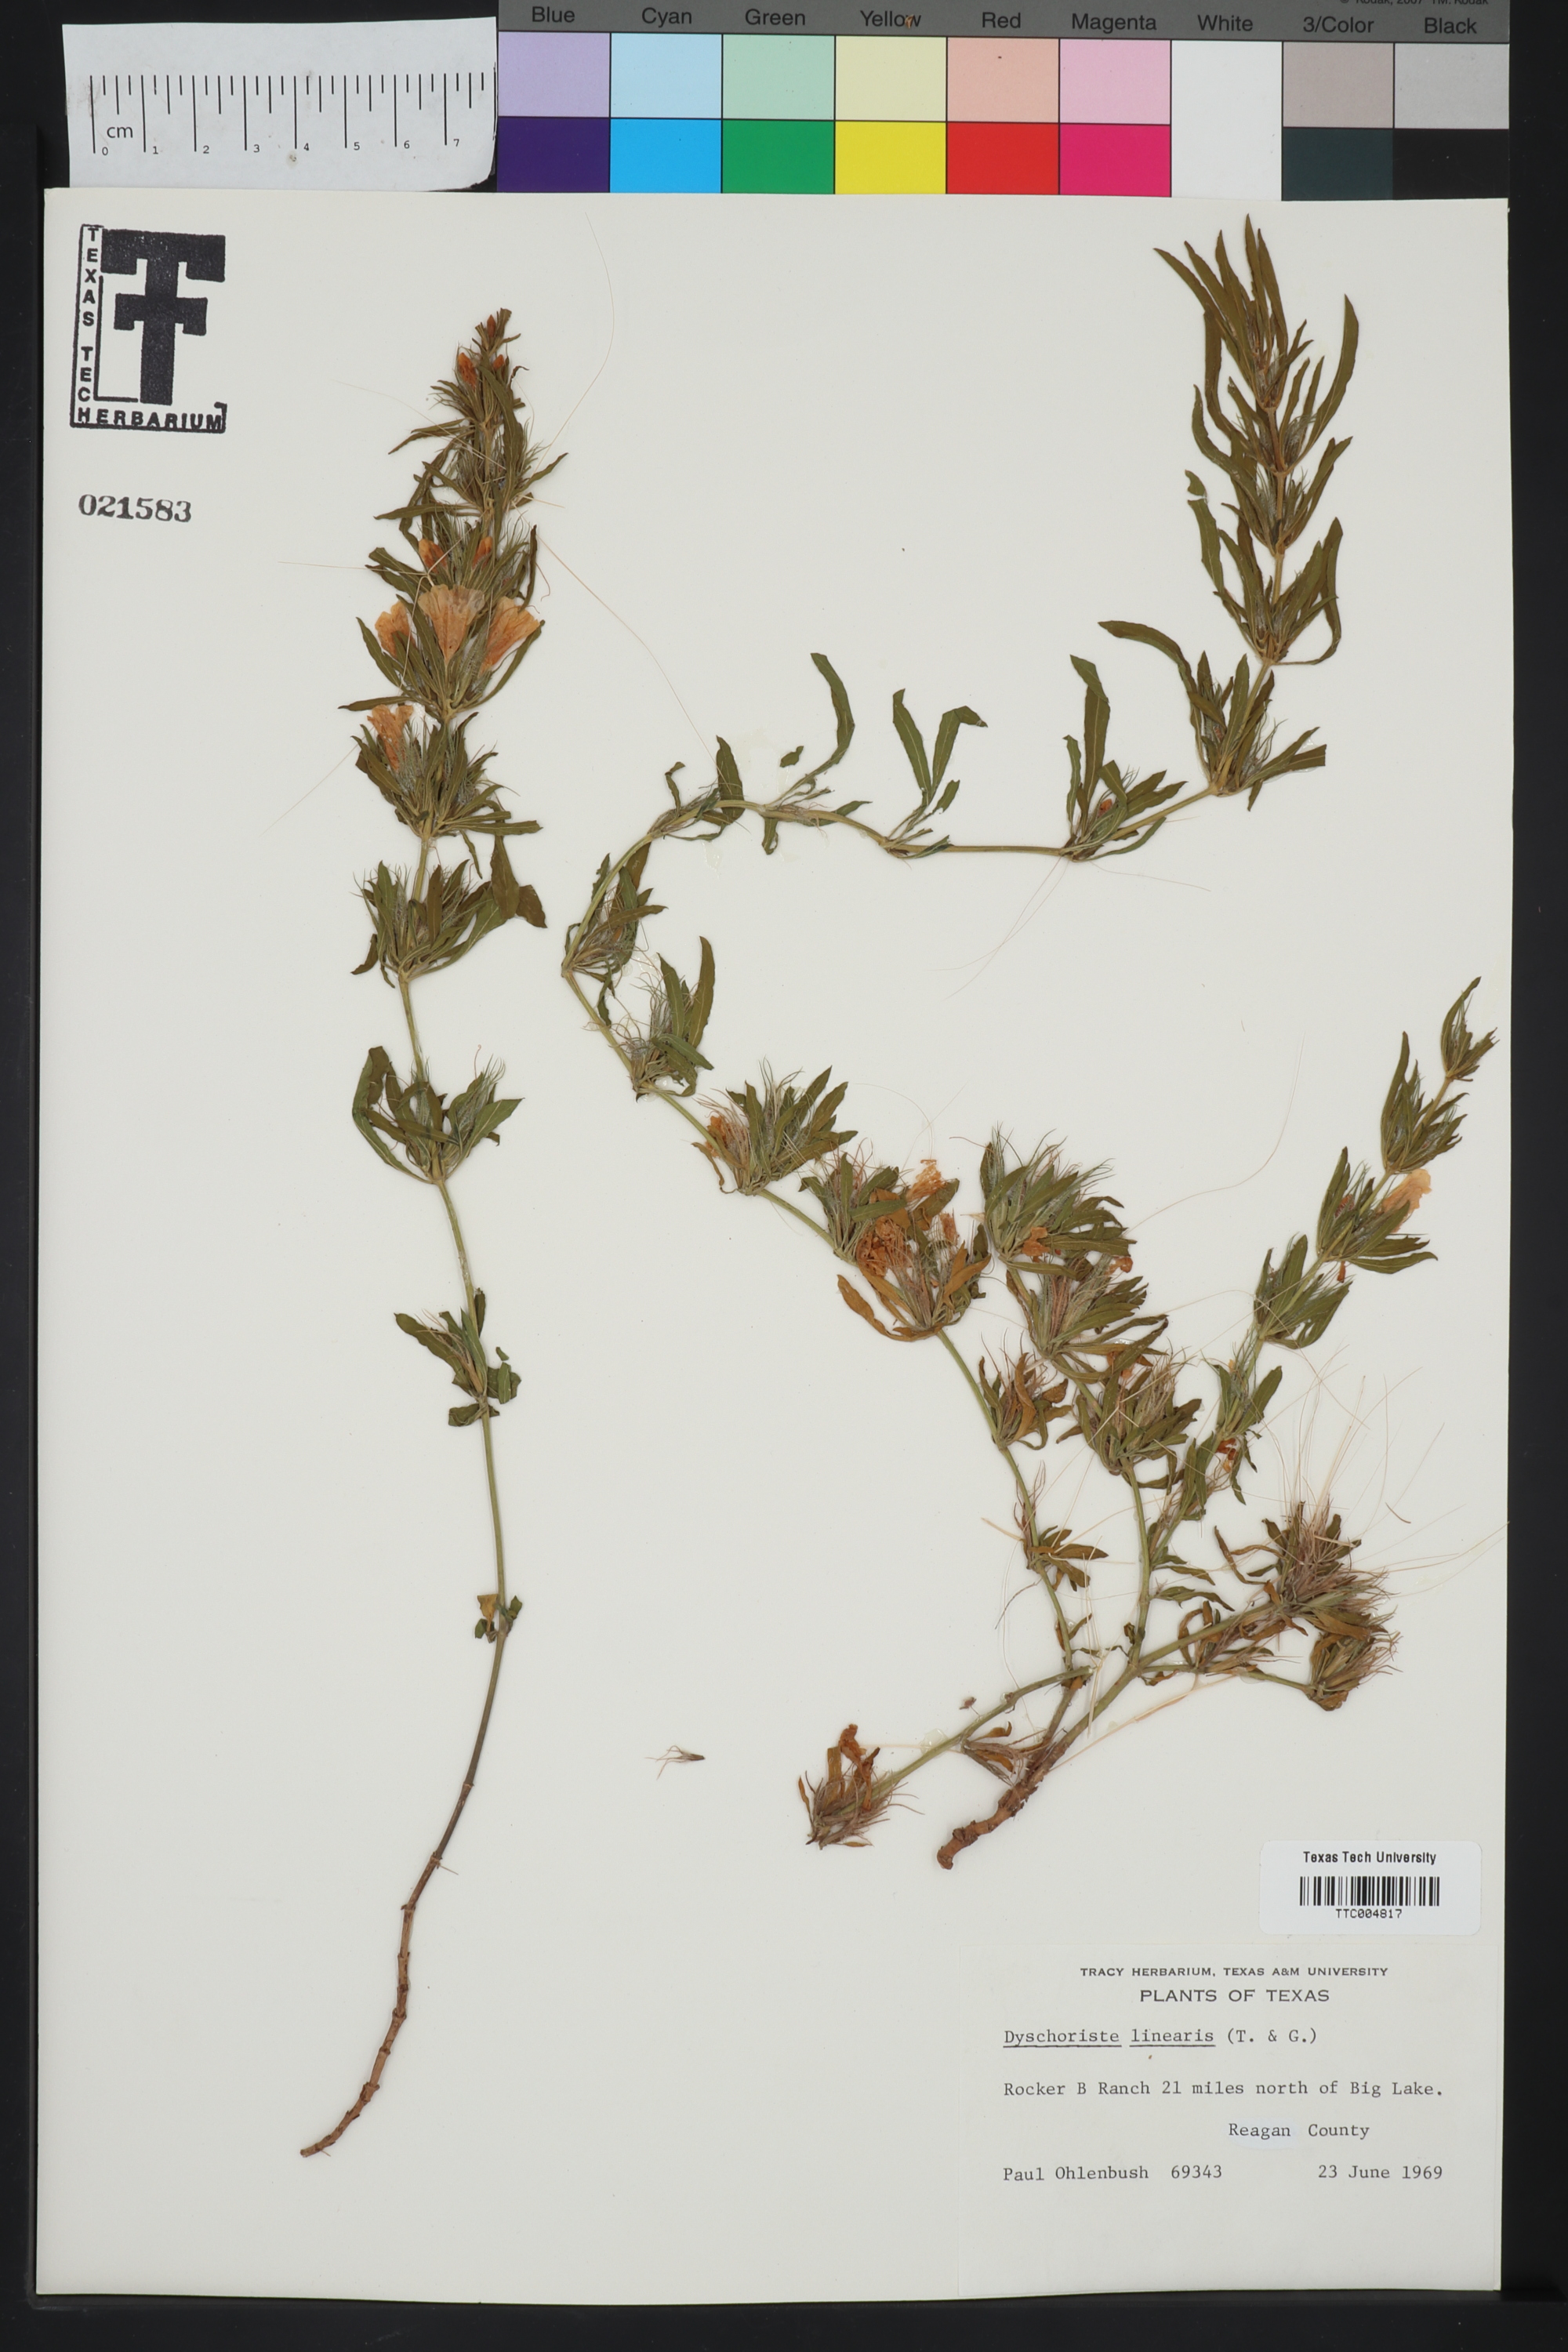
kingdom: Plantae
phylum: Tracheophyta
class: Magnoliopsida
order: Lamiales
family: Acanthaceae
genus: Dyschoriste
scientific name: Dyschoriste linearis
